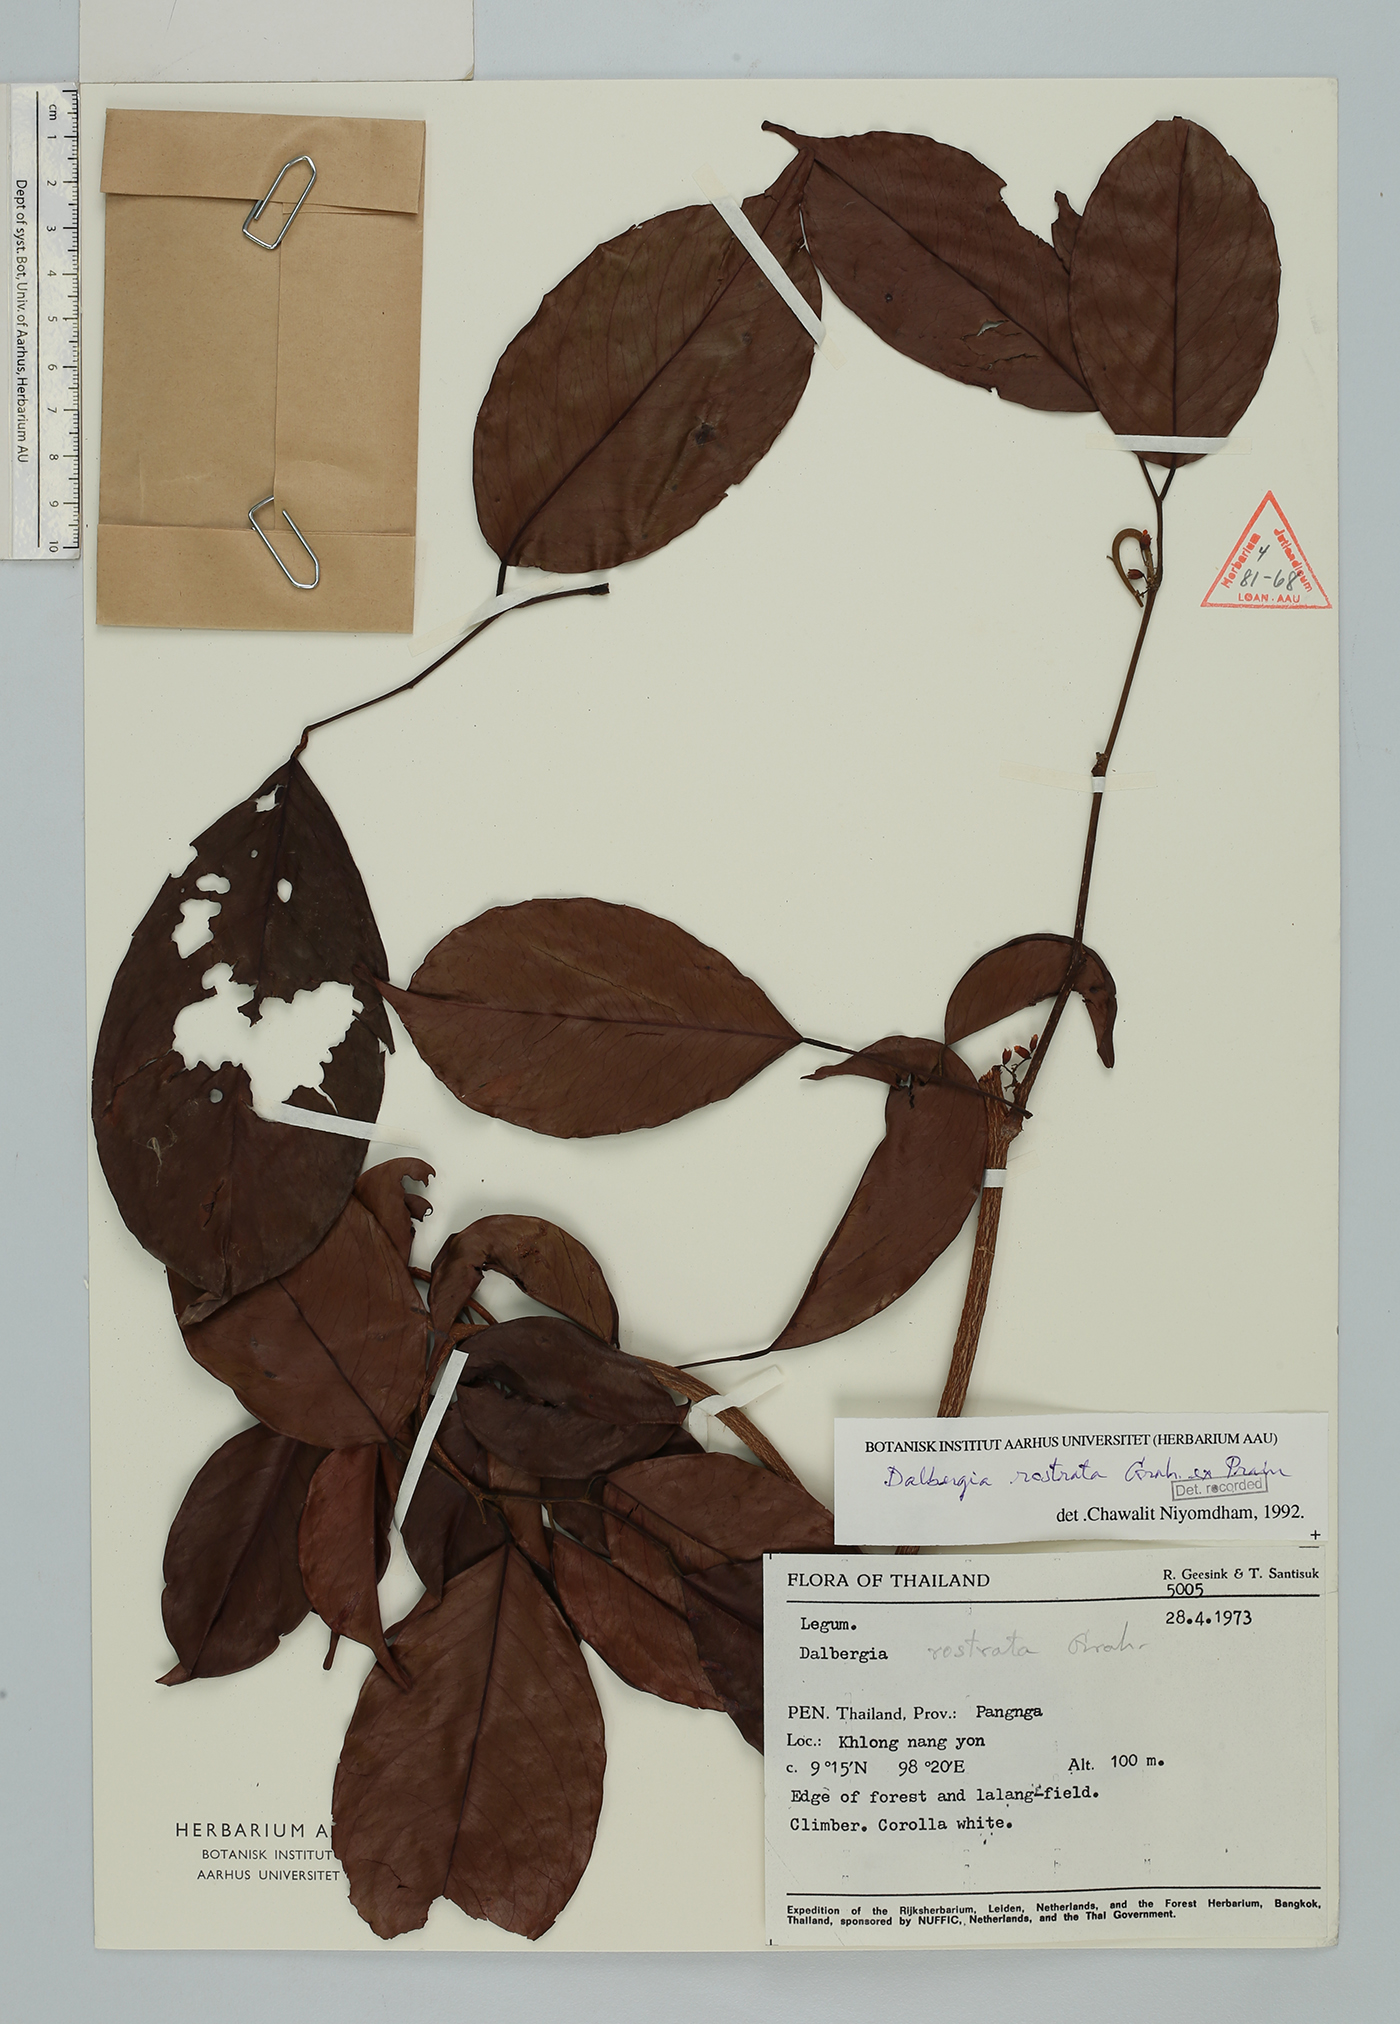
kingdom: Plantae
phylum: Tracheophyta
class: Magnoliopsida
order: Fabales
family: Fabaceae
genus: Dalbergia
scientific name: Dalbergia rostrata
